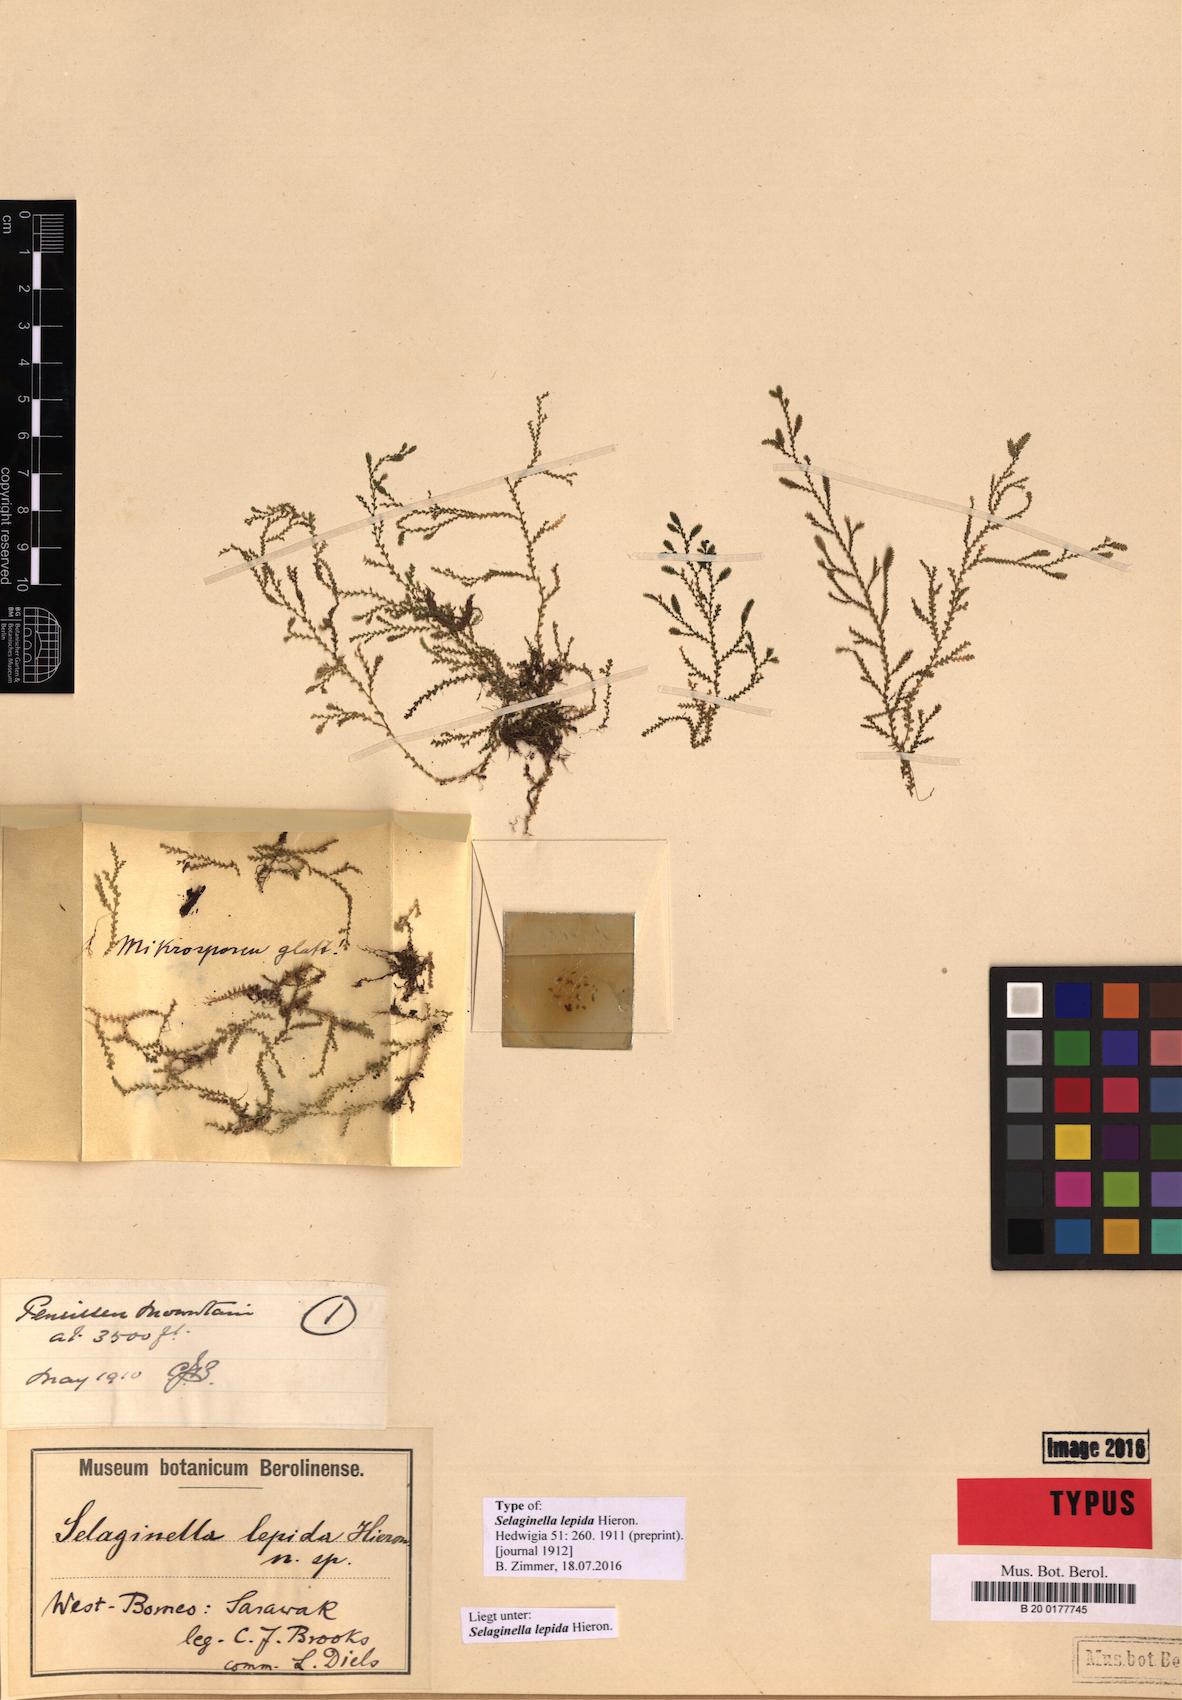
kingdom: Plantae
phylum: Tracheophyta
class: Lycopodiopsida
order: Selaginellales
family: Selaginellaceae
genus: Selaginella
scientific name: Selaginella lepida
